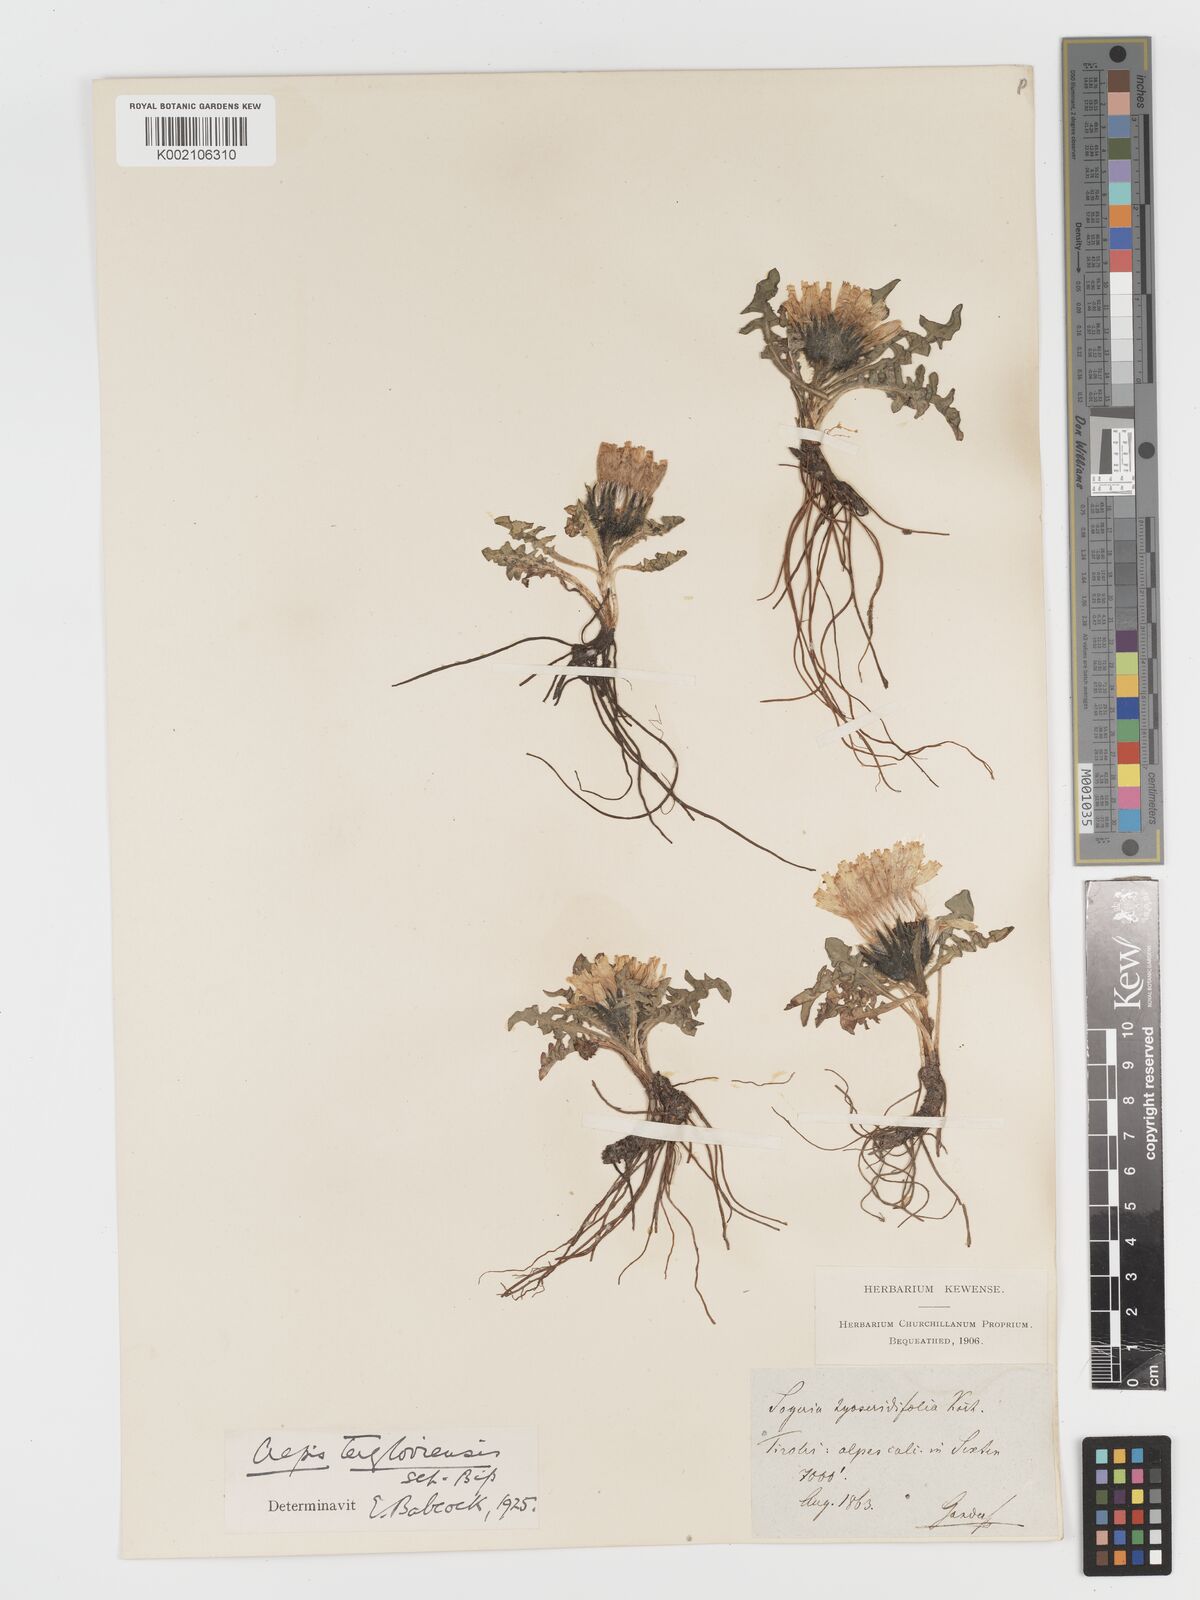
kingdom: Plantae
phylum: Tracheophyta
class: Magnoliopsida
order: Asterales
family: Asteraceae
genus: Crepis
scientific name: Crepis terglouensis
